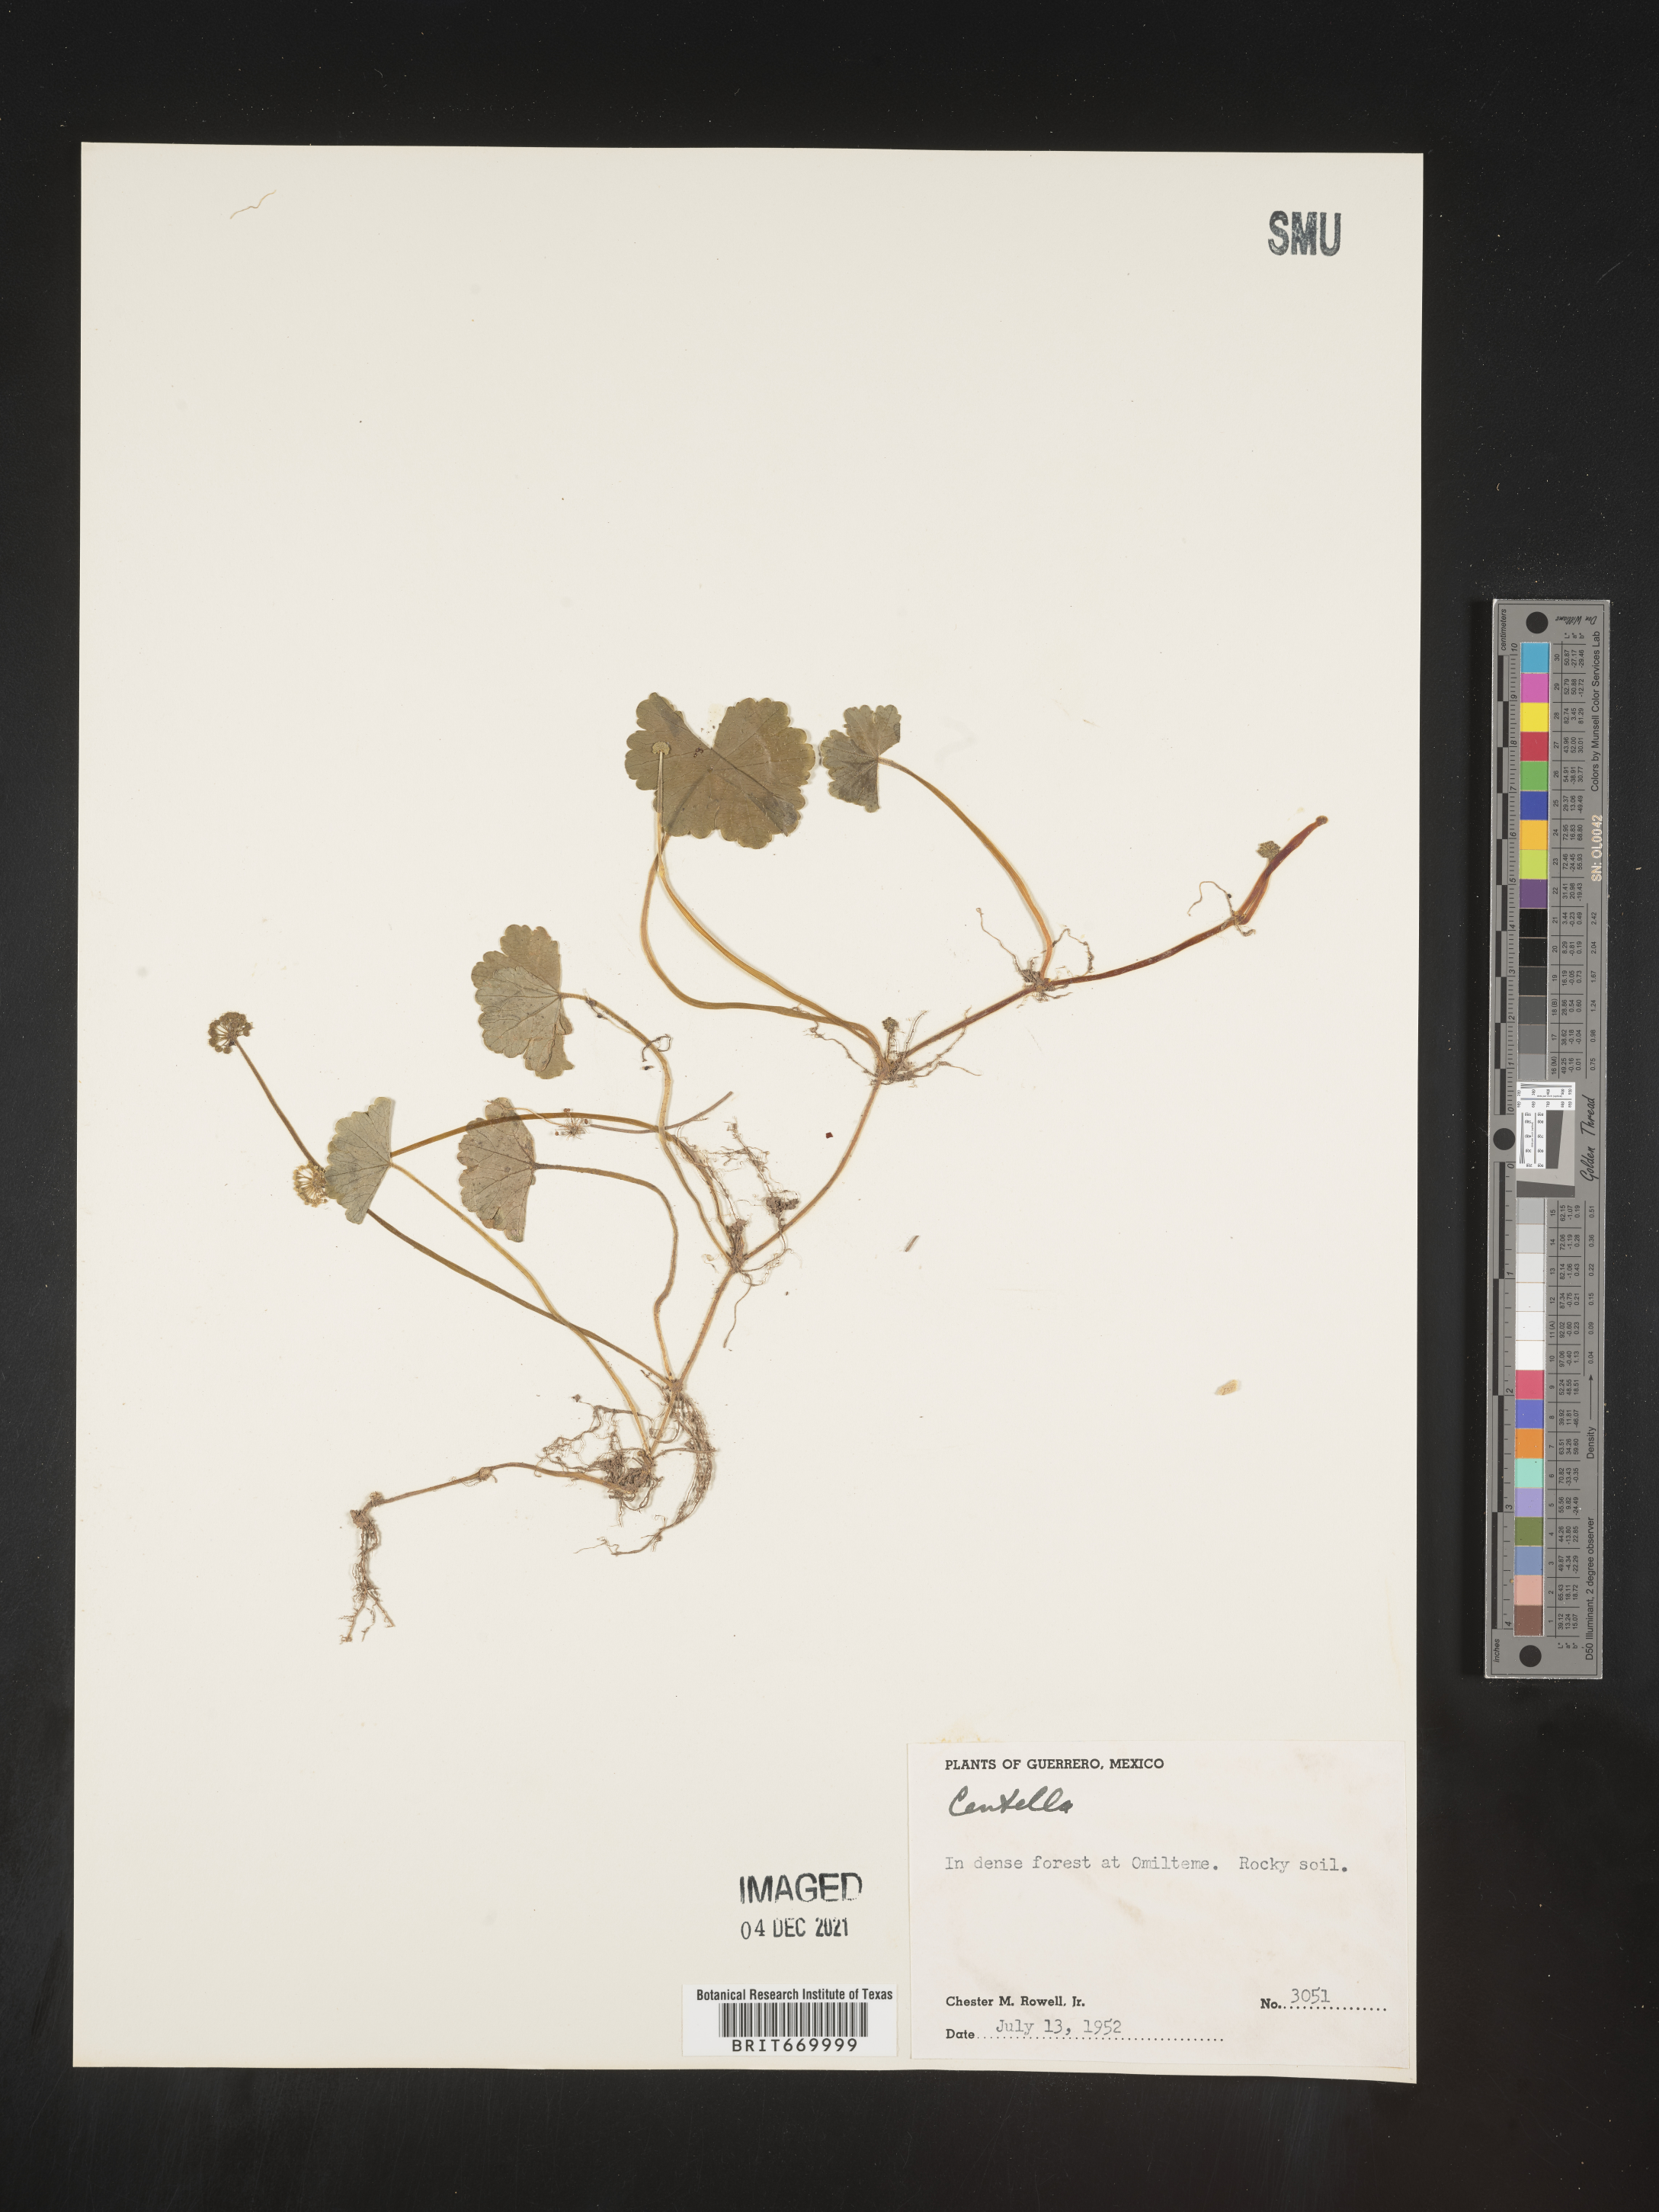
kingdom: Plantae
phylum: Tracheophyta
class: Magnoliopsida
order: Apiales
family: Araliaceae
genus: Hydrocotyle
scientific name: Hydrocotyle
